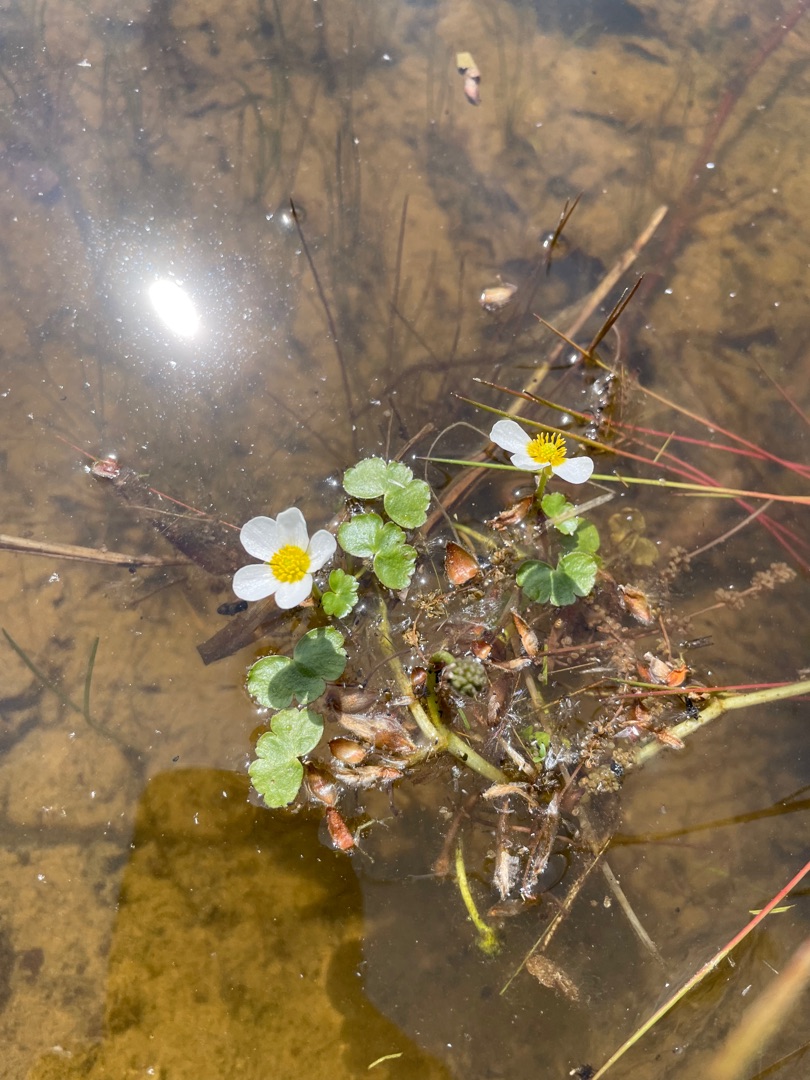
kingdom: Plantae
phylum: Tracheophyta
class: Magnoliopsida
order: Ranunculales
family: Ranunculaceae
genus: Ranunculus
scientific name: Ranunculus peltatus
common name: Storblomstret vandranunkel
